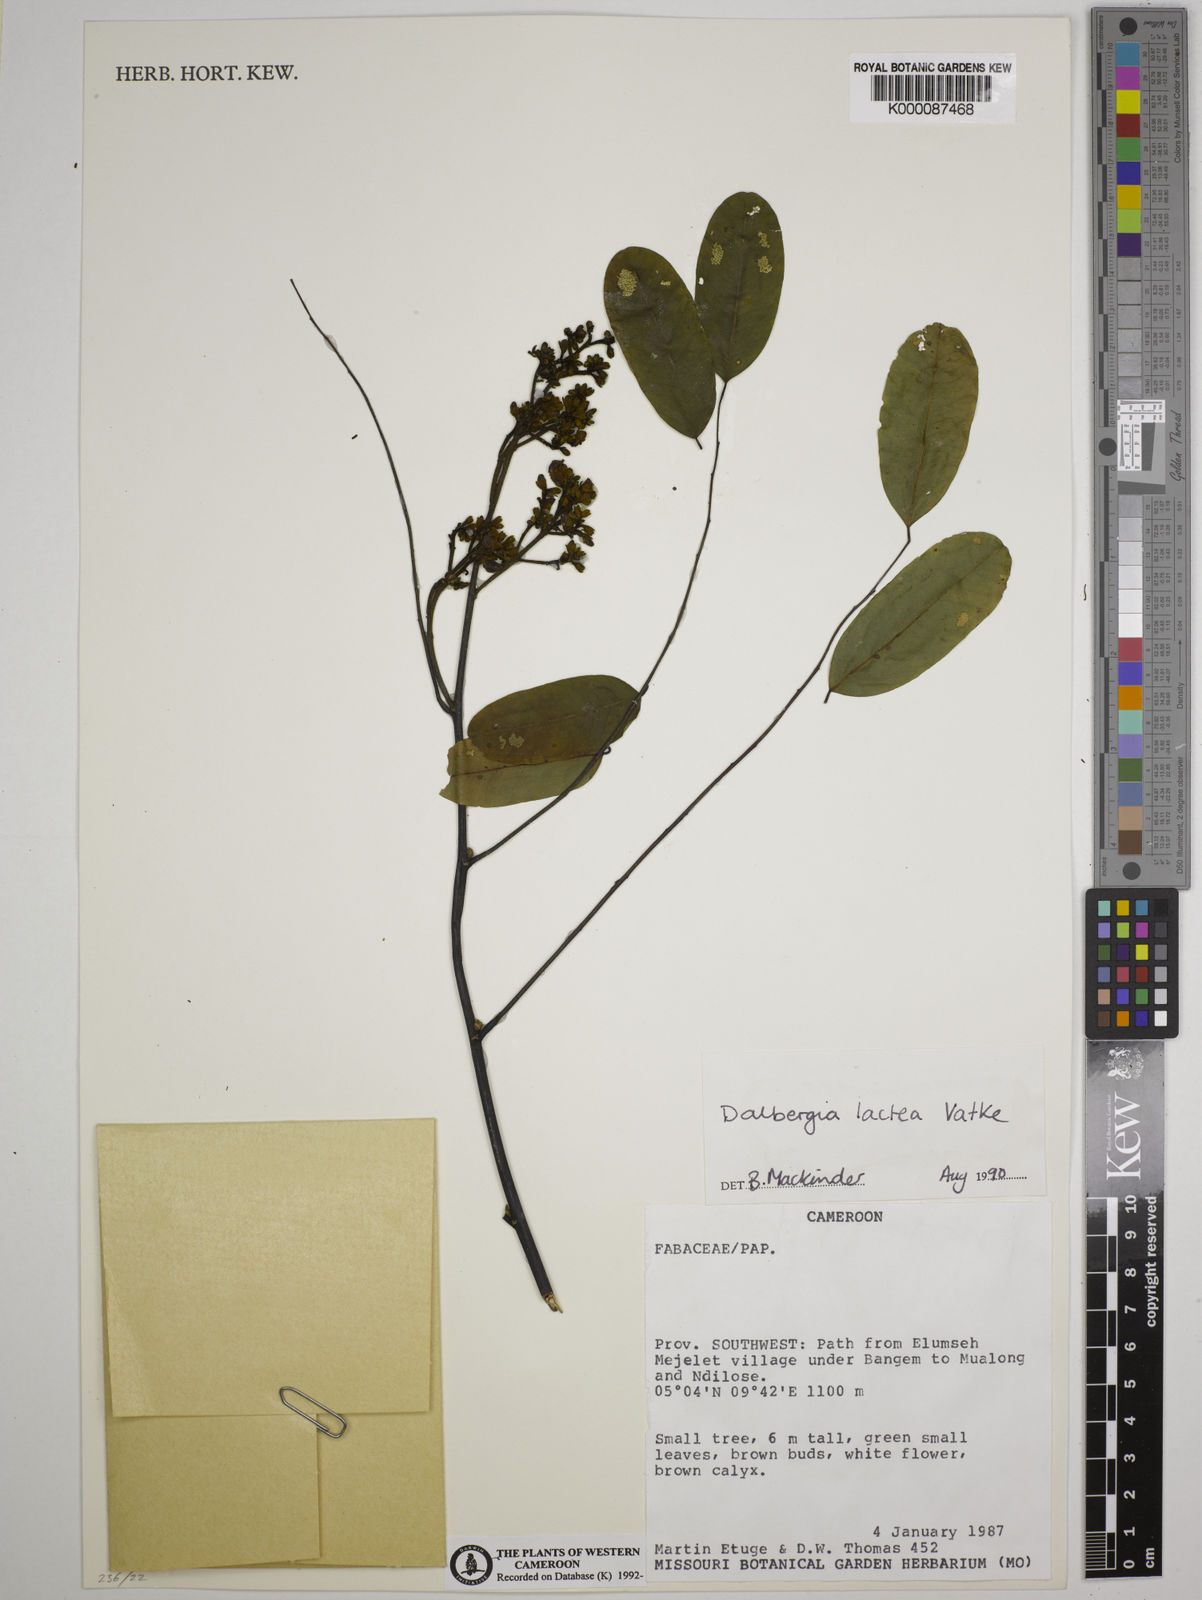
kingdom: Plantae
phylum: Tracheophyta
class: Magnoliopsida
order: Fabales
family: Fabaceae
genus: Dalbergia
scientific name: Dalbergia lactea
